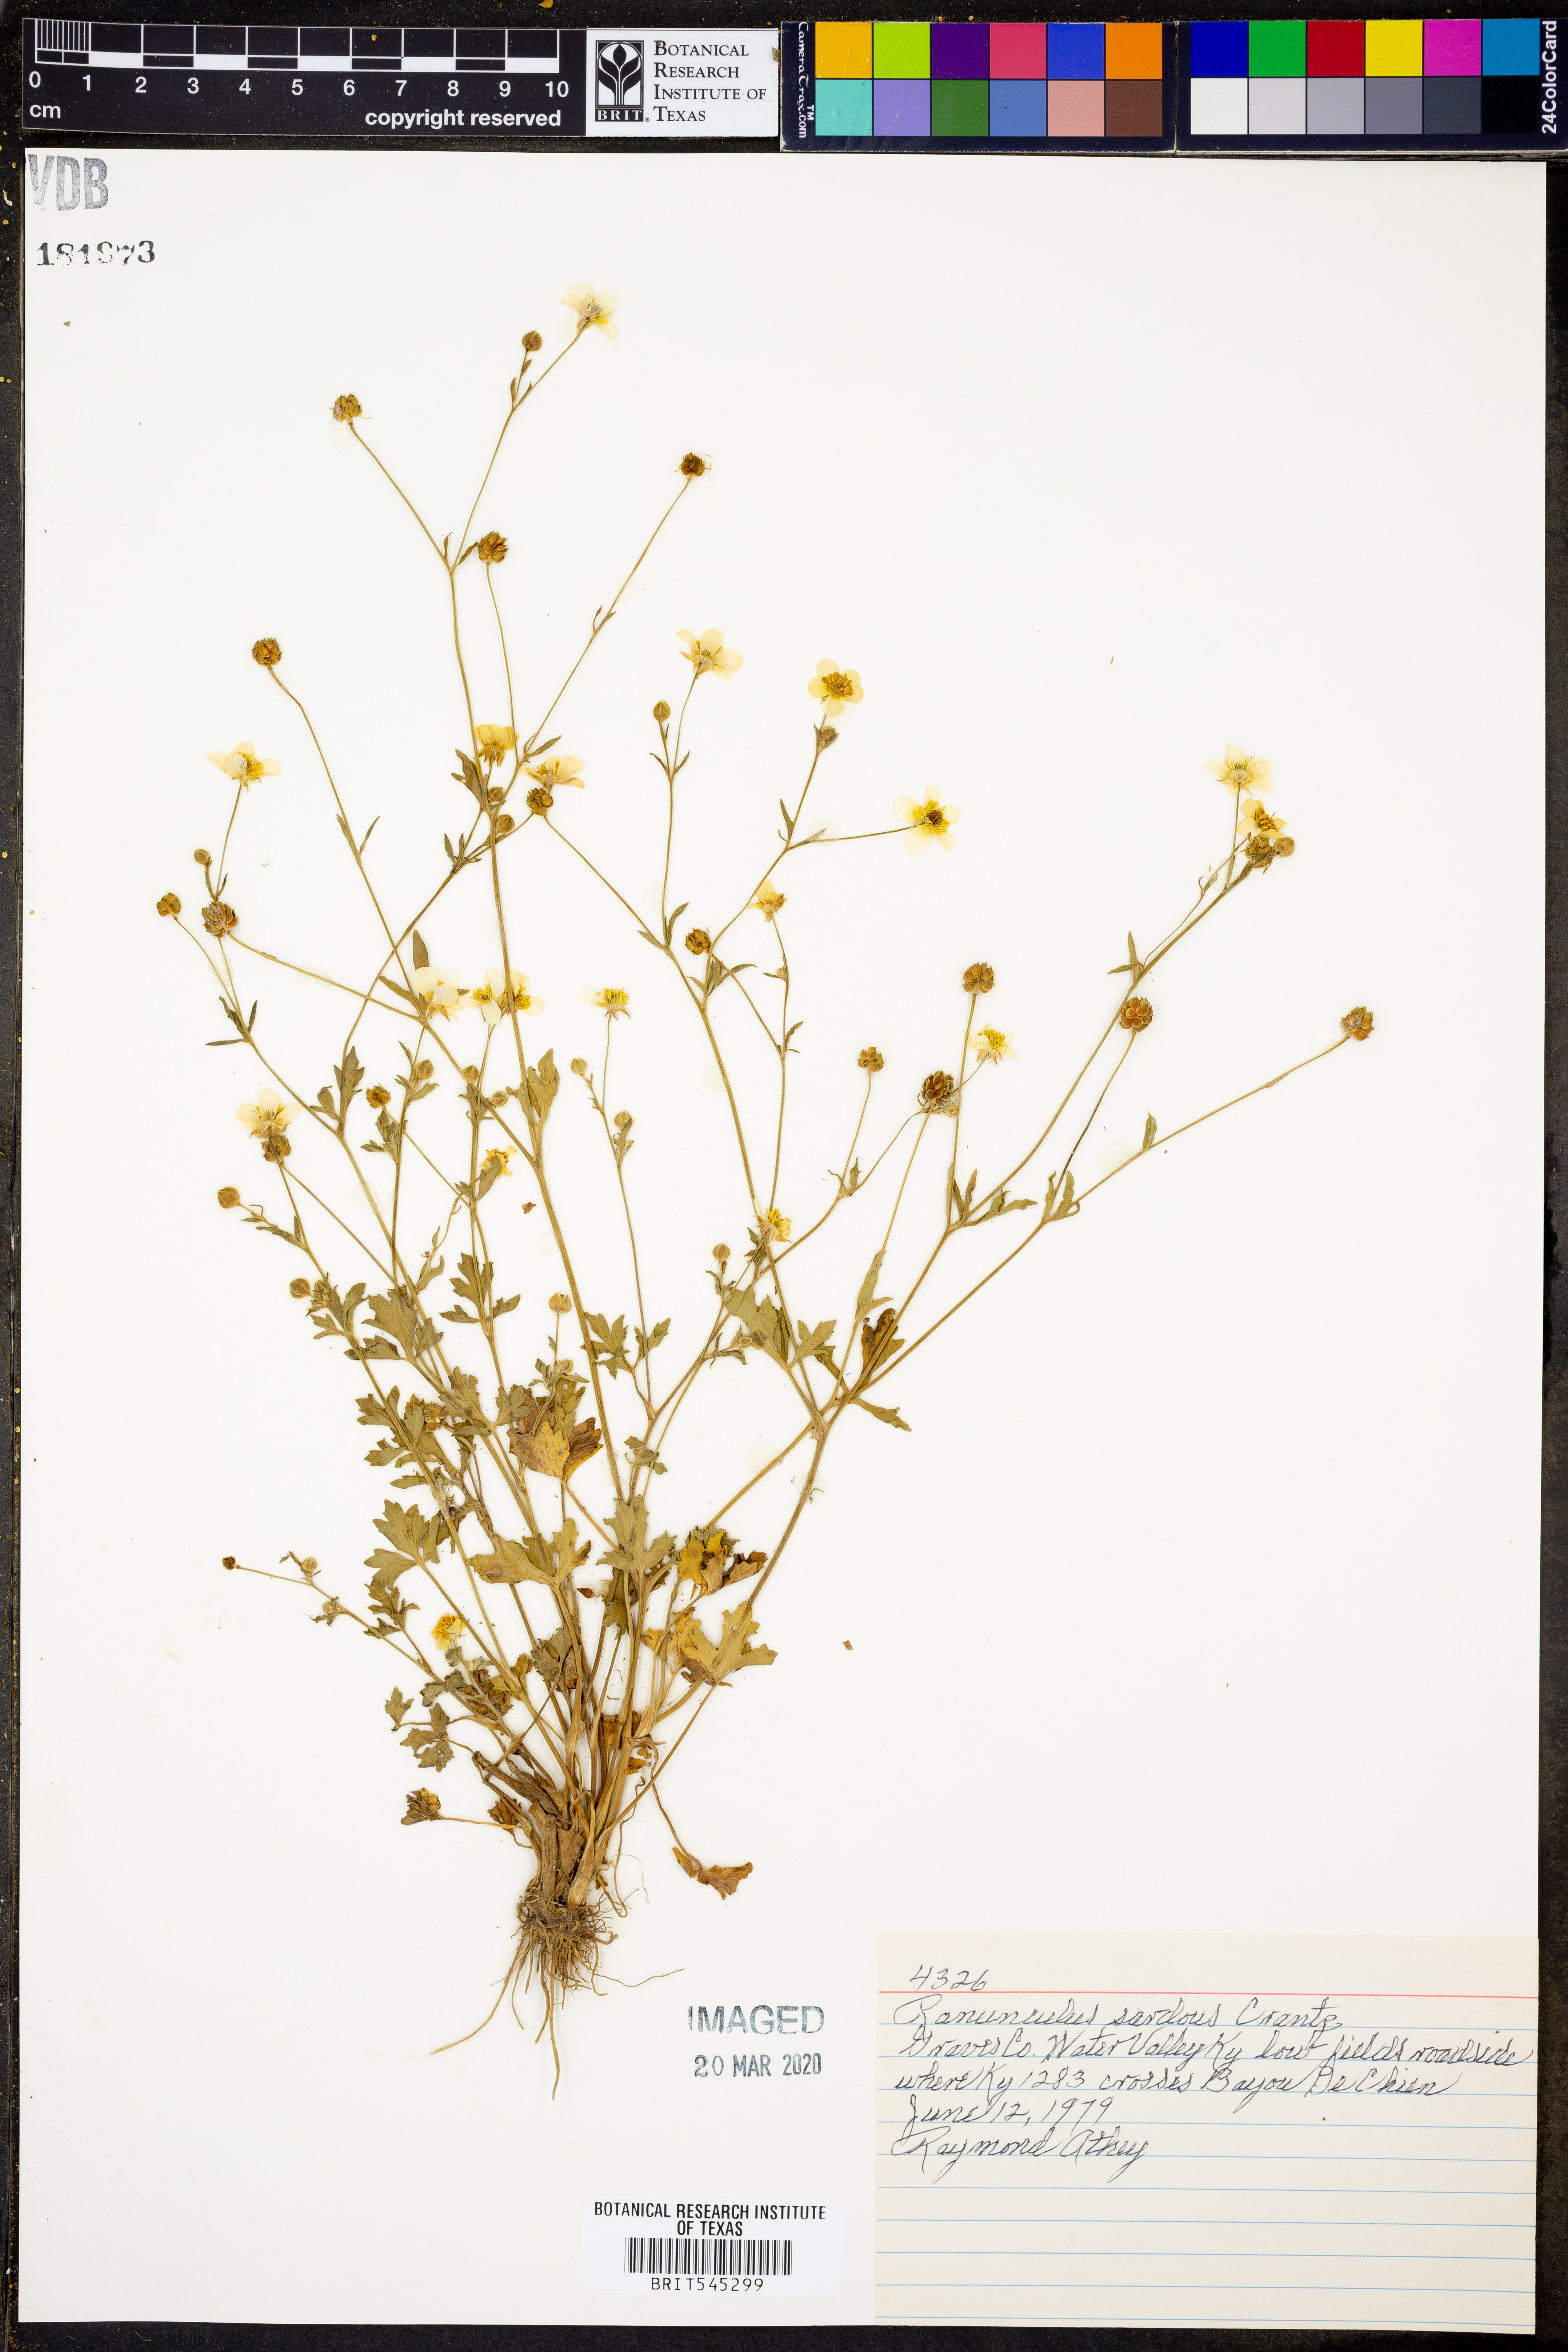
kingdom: Plantae
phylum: Tracheophyta
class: Magnoliopsida
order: Ranunculales
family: Ranunculaceae
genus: Ranunculus
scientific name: Ranunculus sardous
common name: Hairy buttercup
